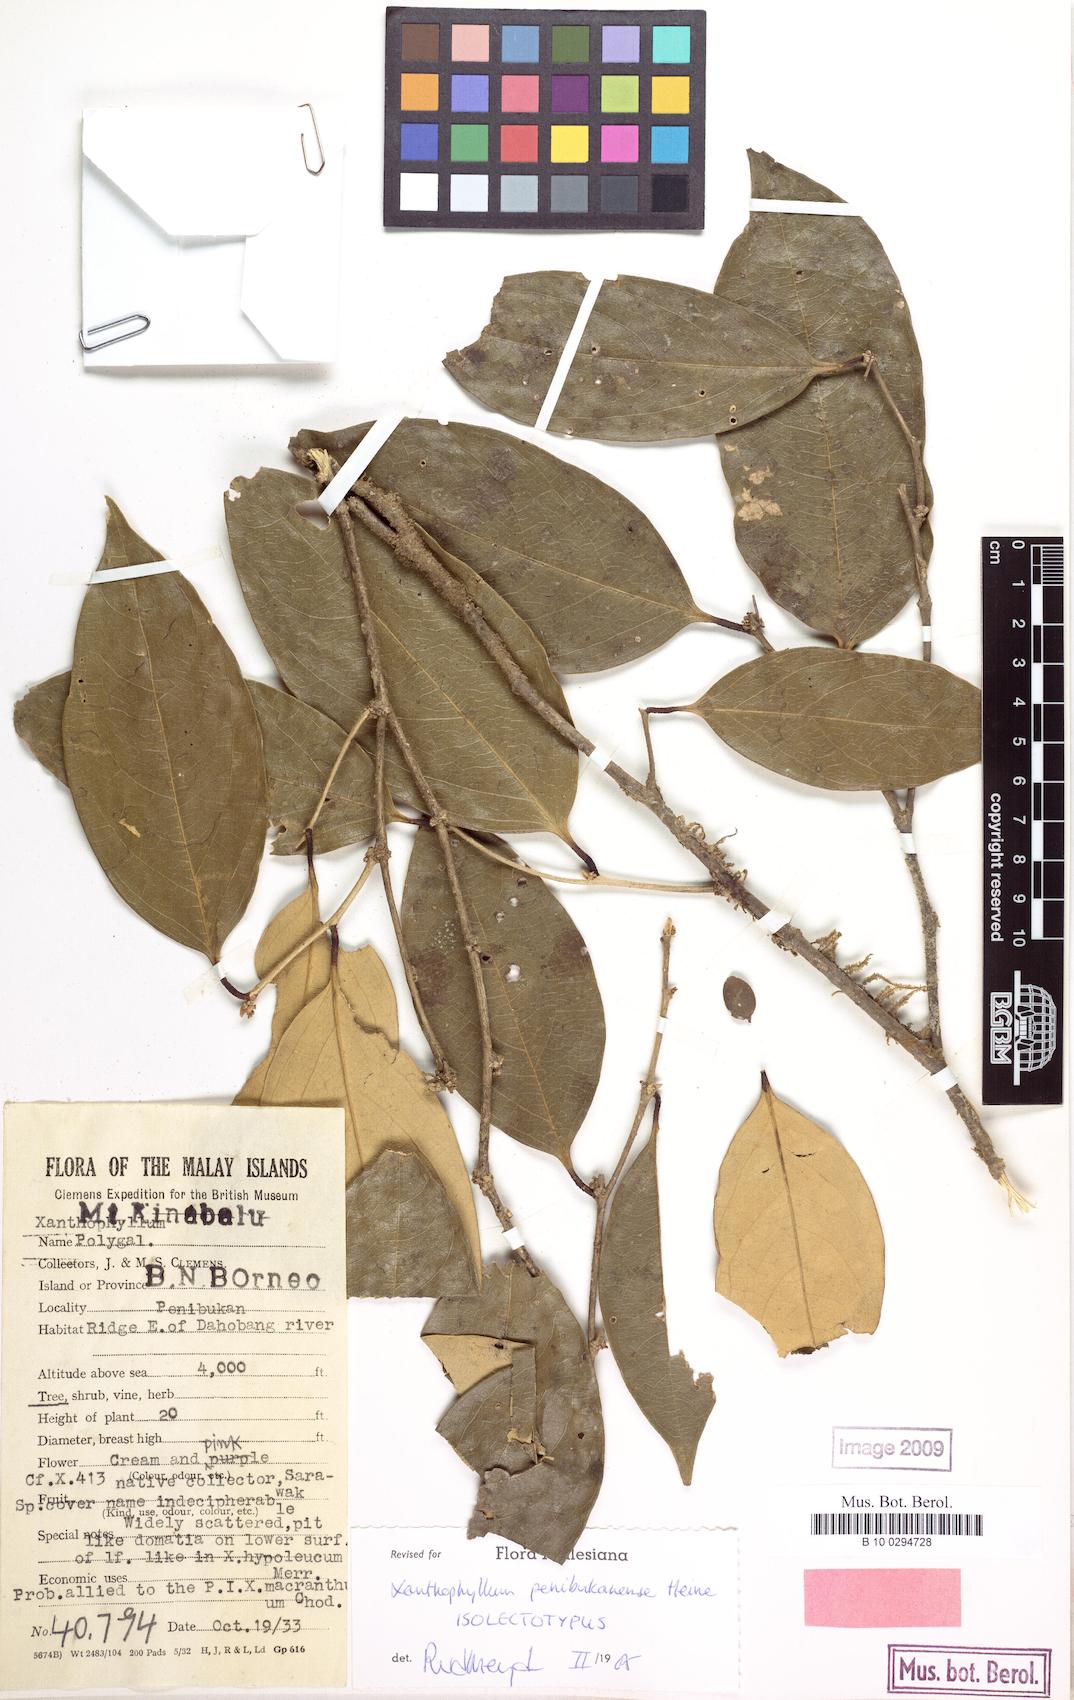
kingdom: Plantae
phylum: Tracheophyta
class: Magnoliopsida
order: Fabales
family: Polygalaceae
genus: Xanthophyllum
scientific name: Xanthophyllum penibukanense
